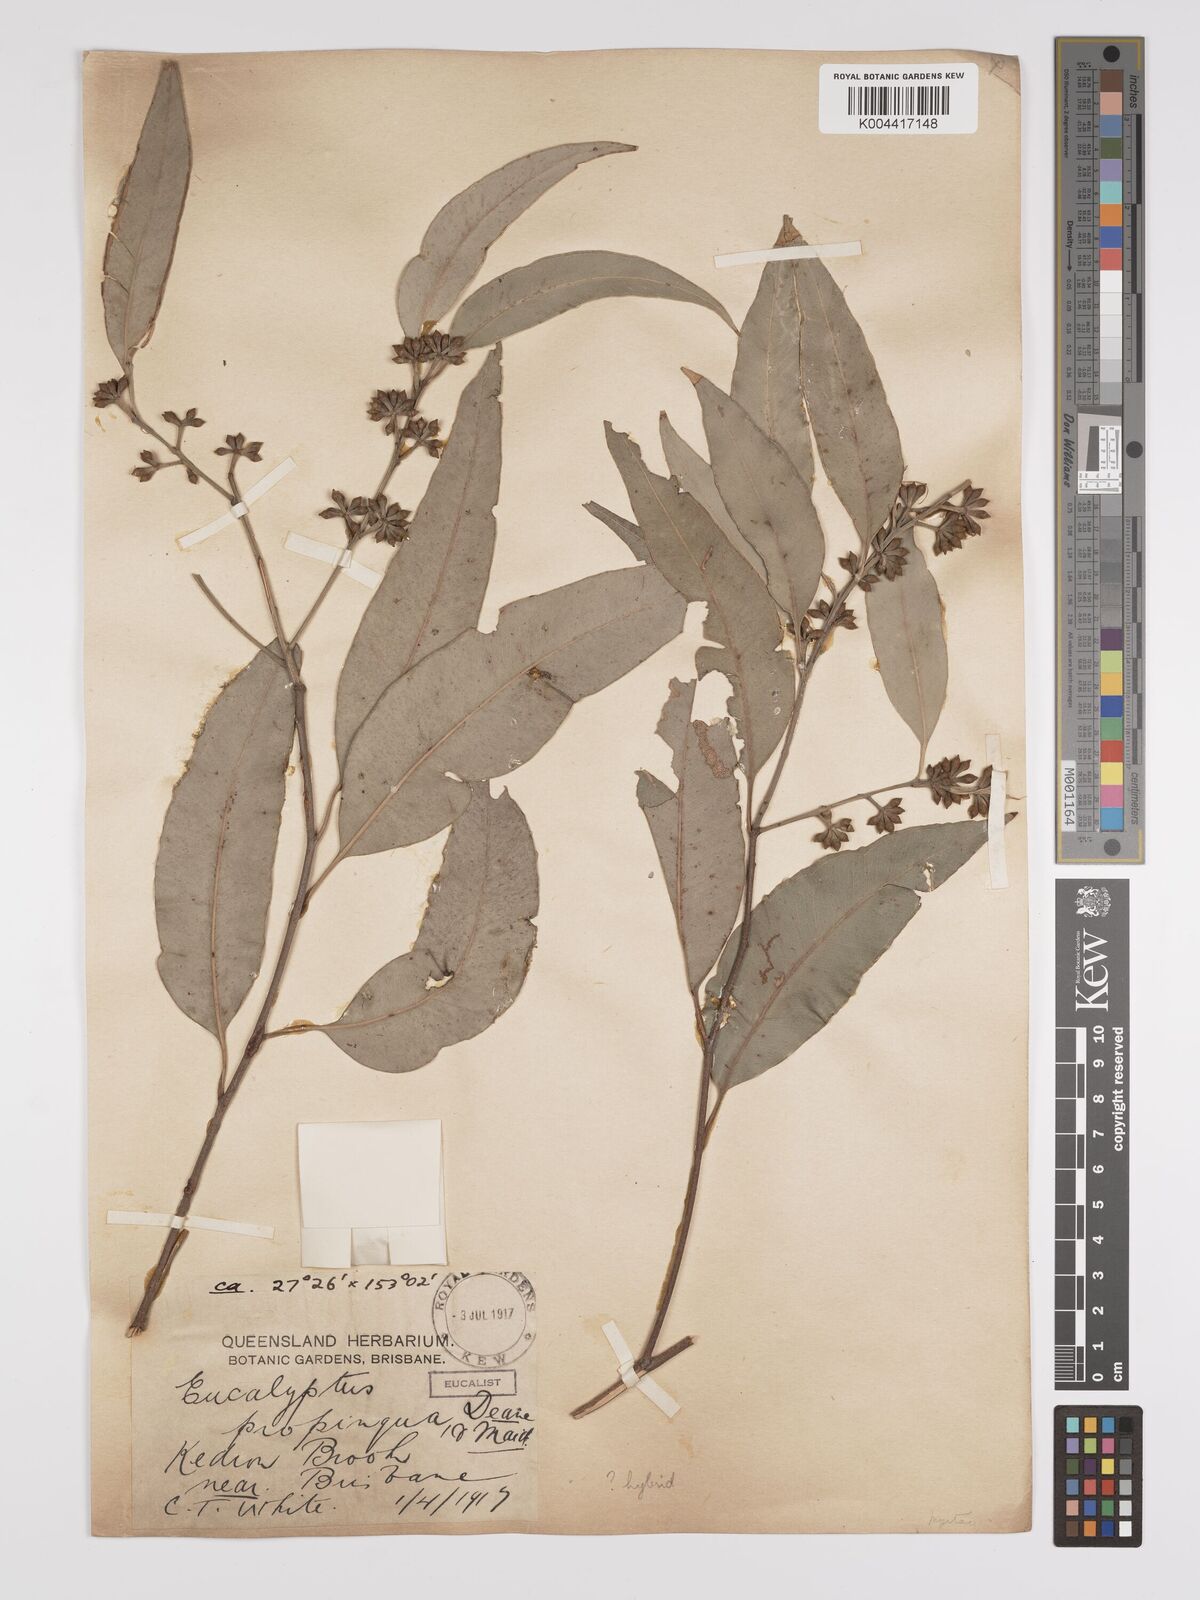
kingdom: Plantae
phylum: Tracheophyta
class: Magnoliopsida
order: Myrtales
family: Myrtaceae
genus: Eucalyptus
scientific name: Eucalyptus propinqua
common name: Grey-gum
